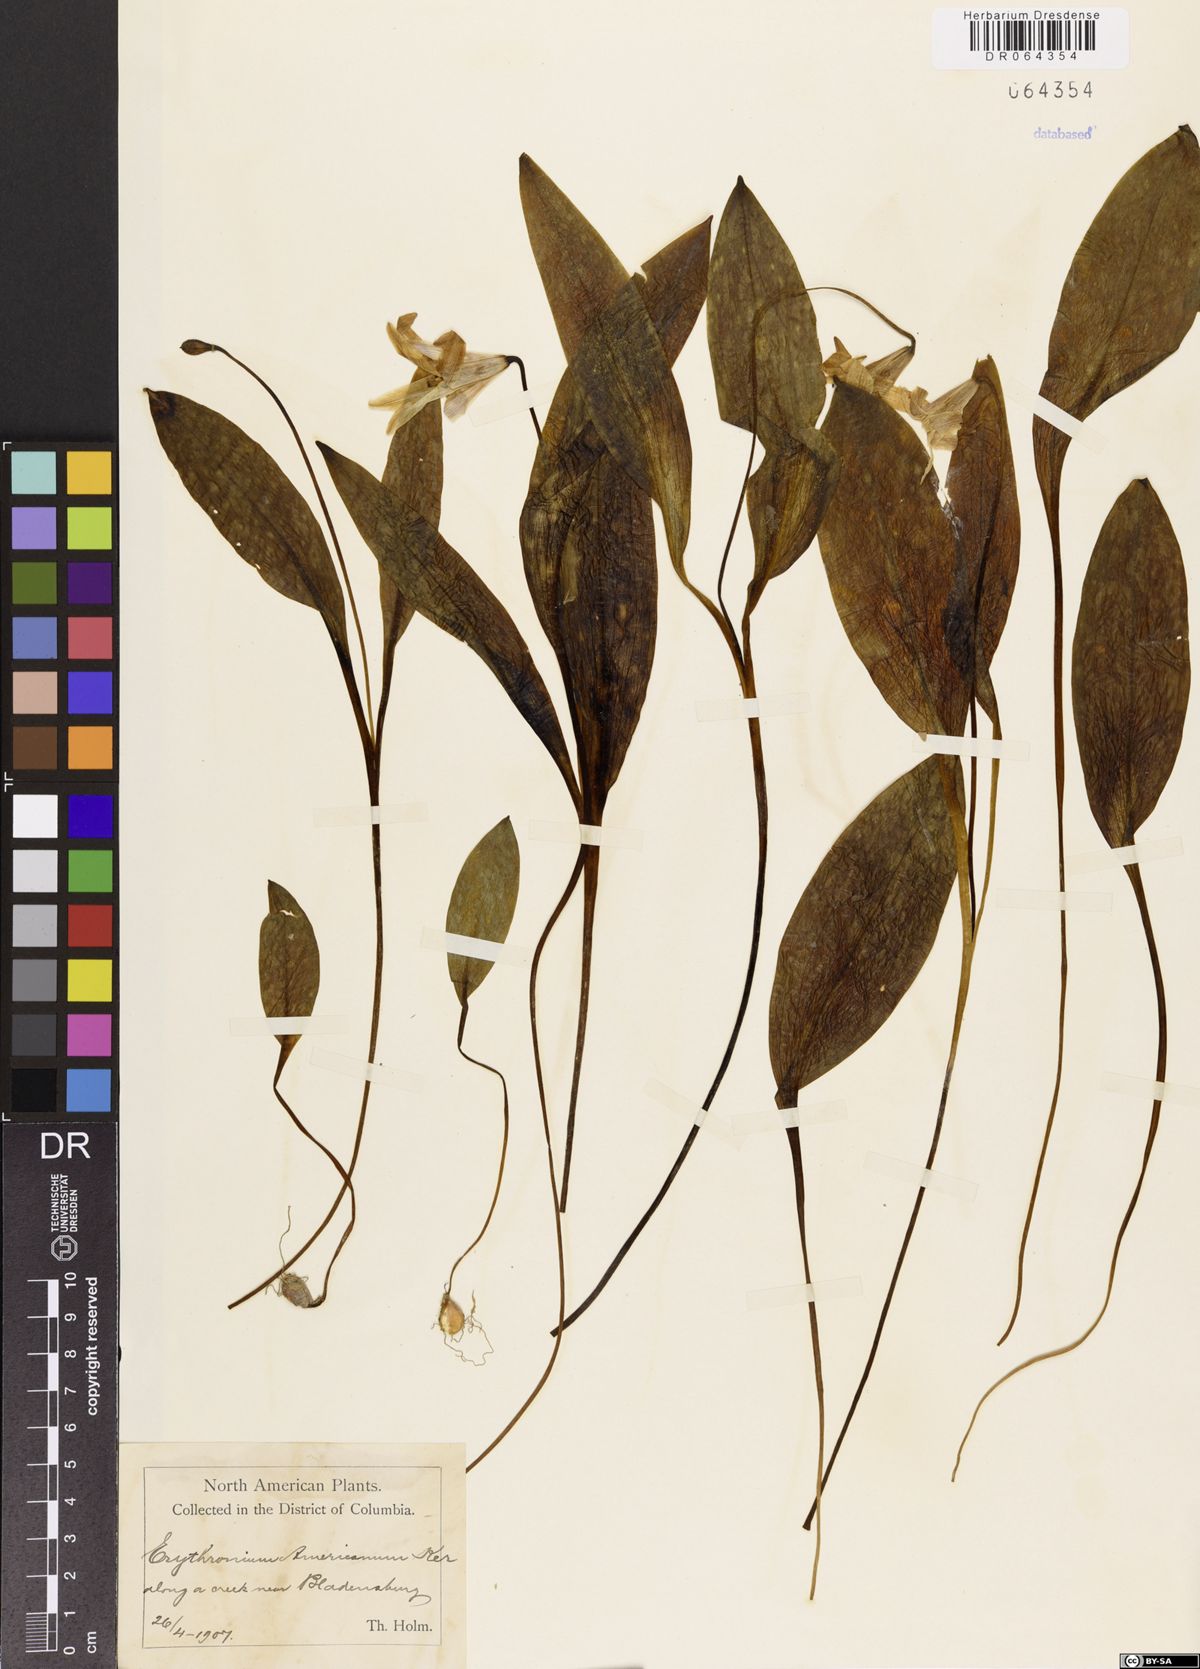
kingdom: Plantae
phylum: Tracheophyta
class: Liliopsida
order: Liliales
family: Liliaceae
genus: Erythronium
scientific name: Erythronium americanum
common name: Yellow adder's-tongue
